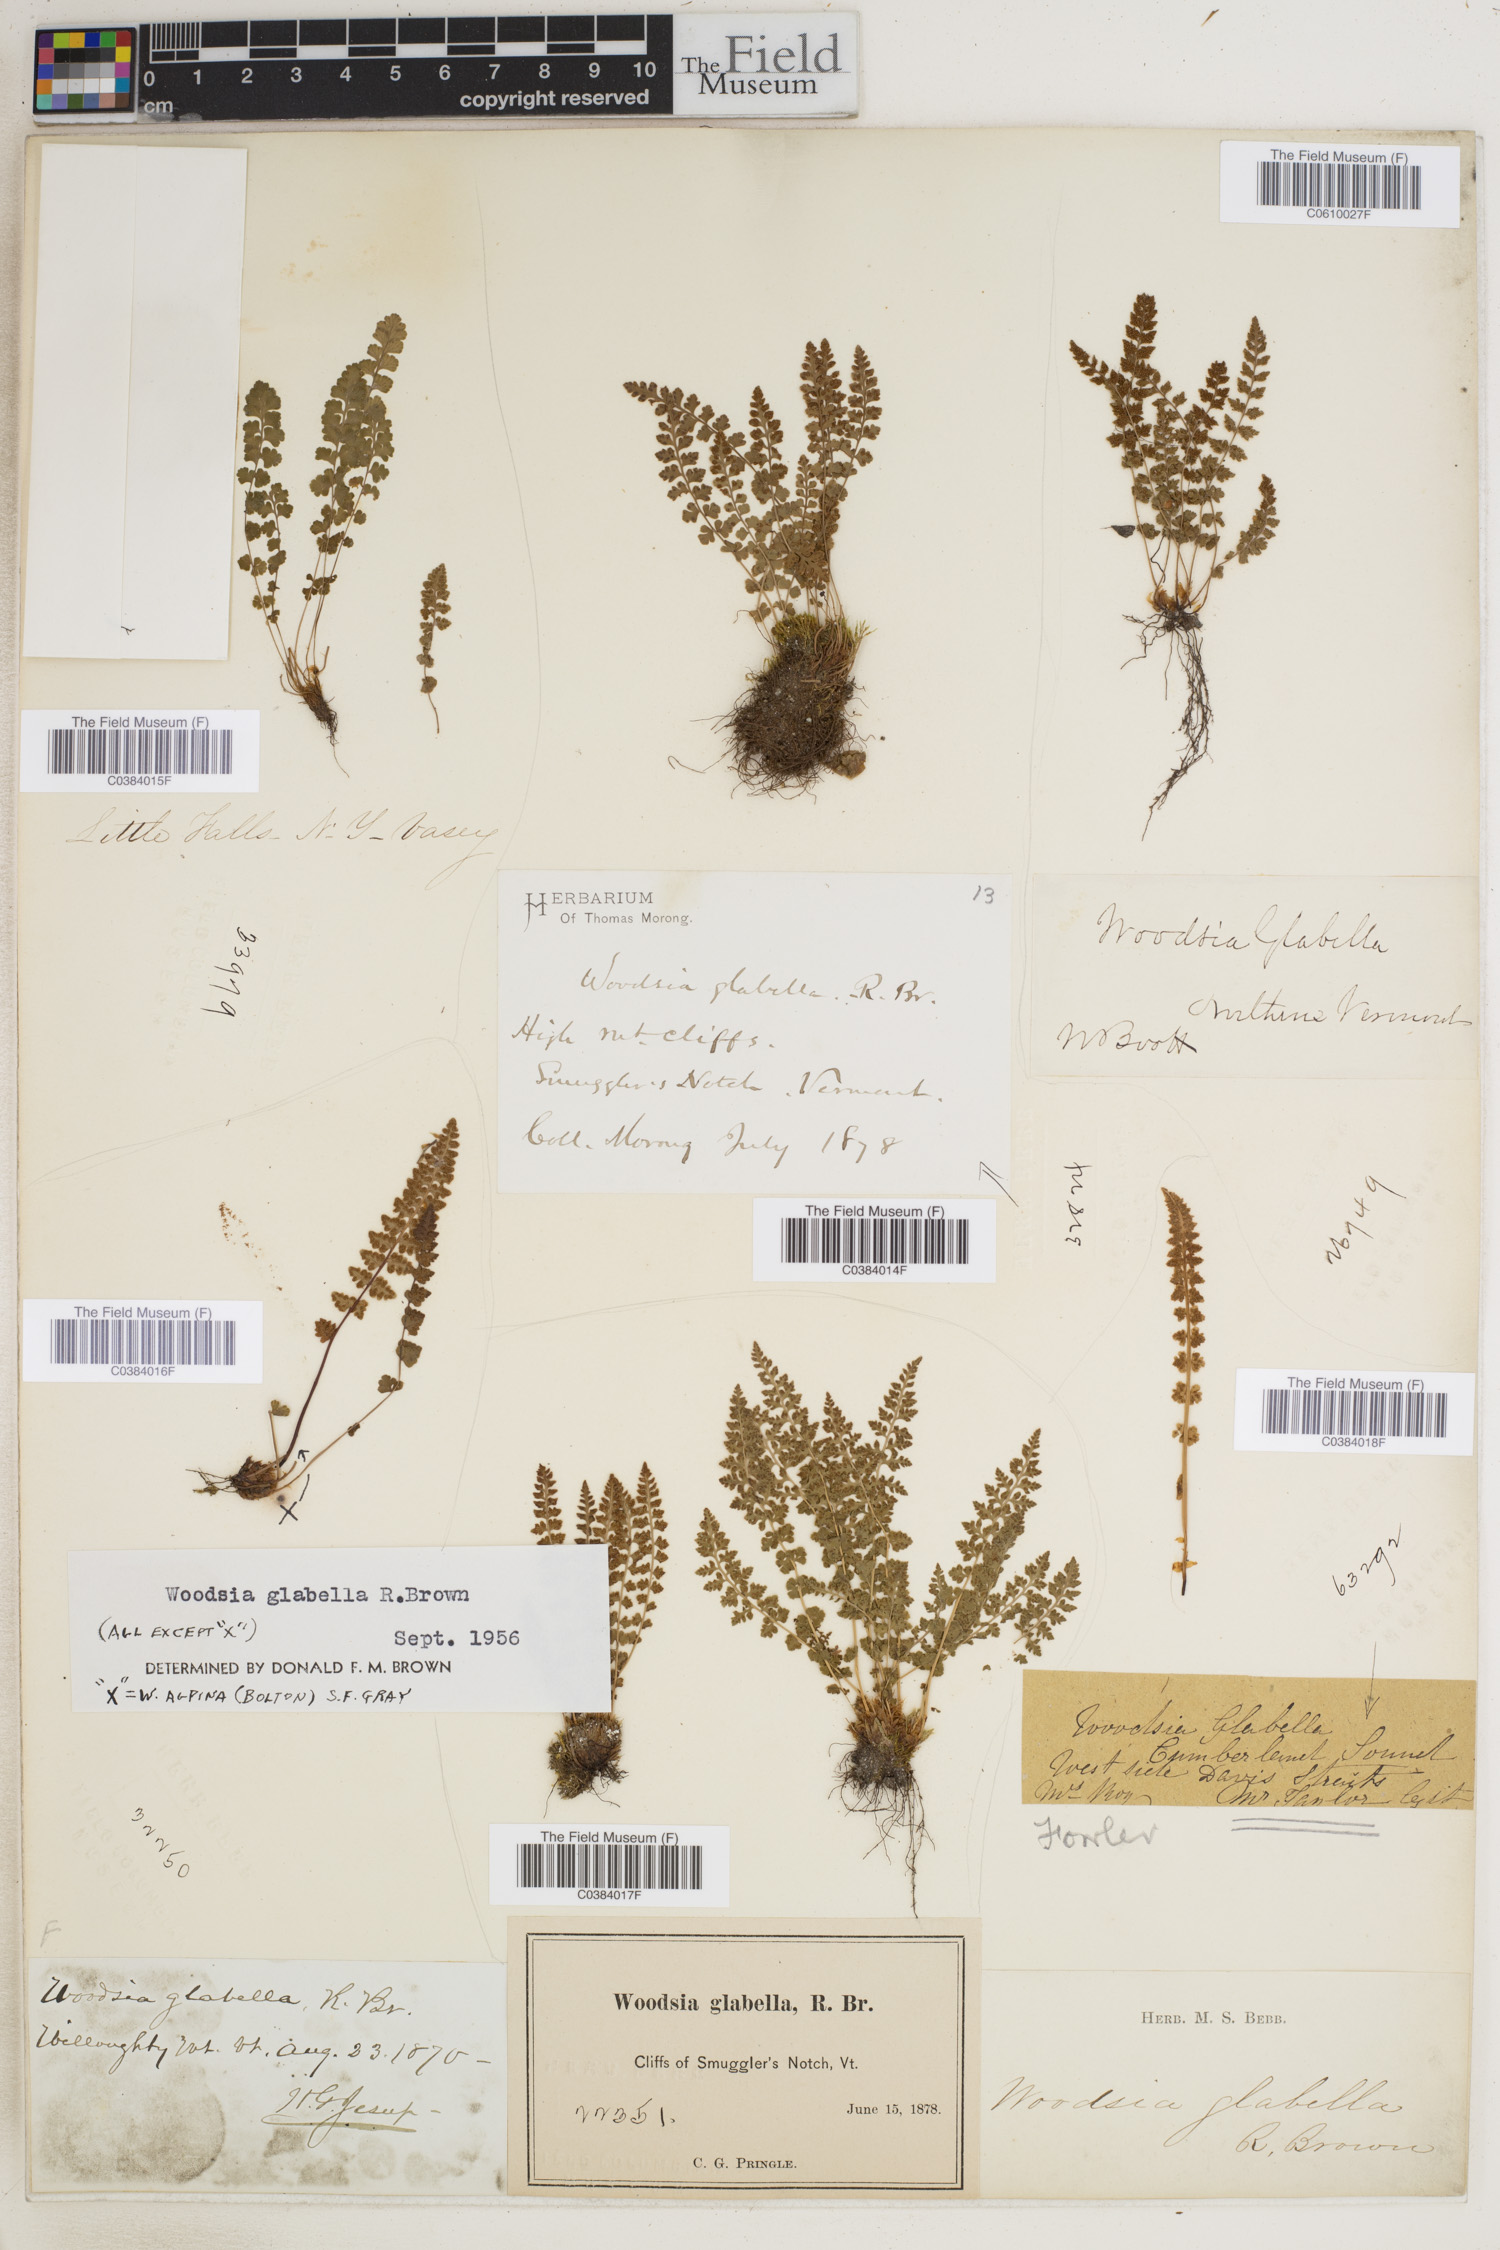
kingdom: Plantae
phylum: Tracheophyta
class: Polypodiopsida
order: Polypodiales
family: Woodsiaceae
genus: Woodsia
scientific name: Woodsia glabella
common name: Smooth woodsia
